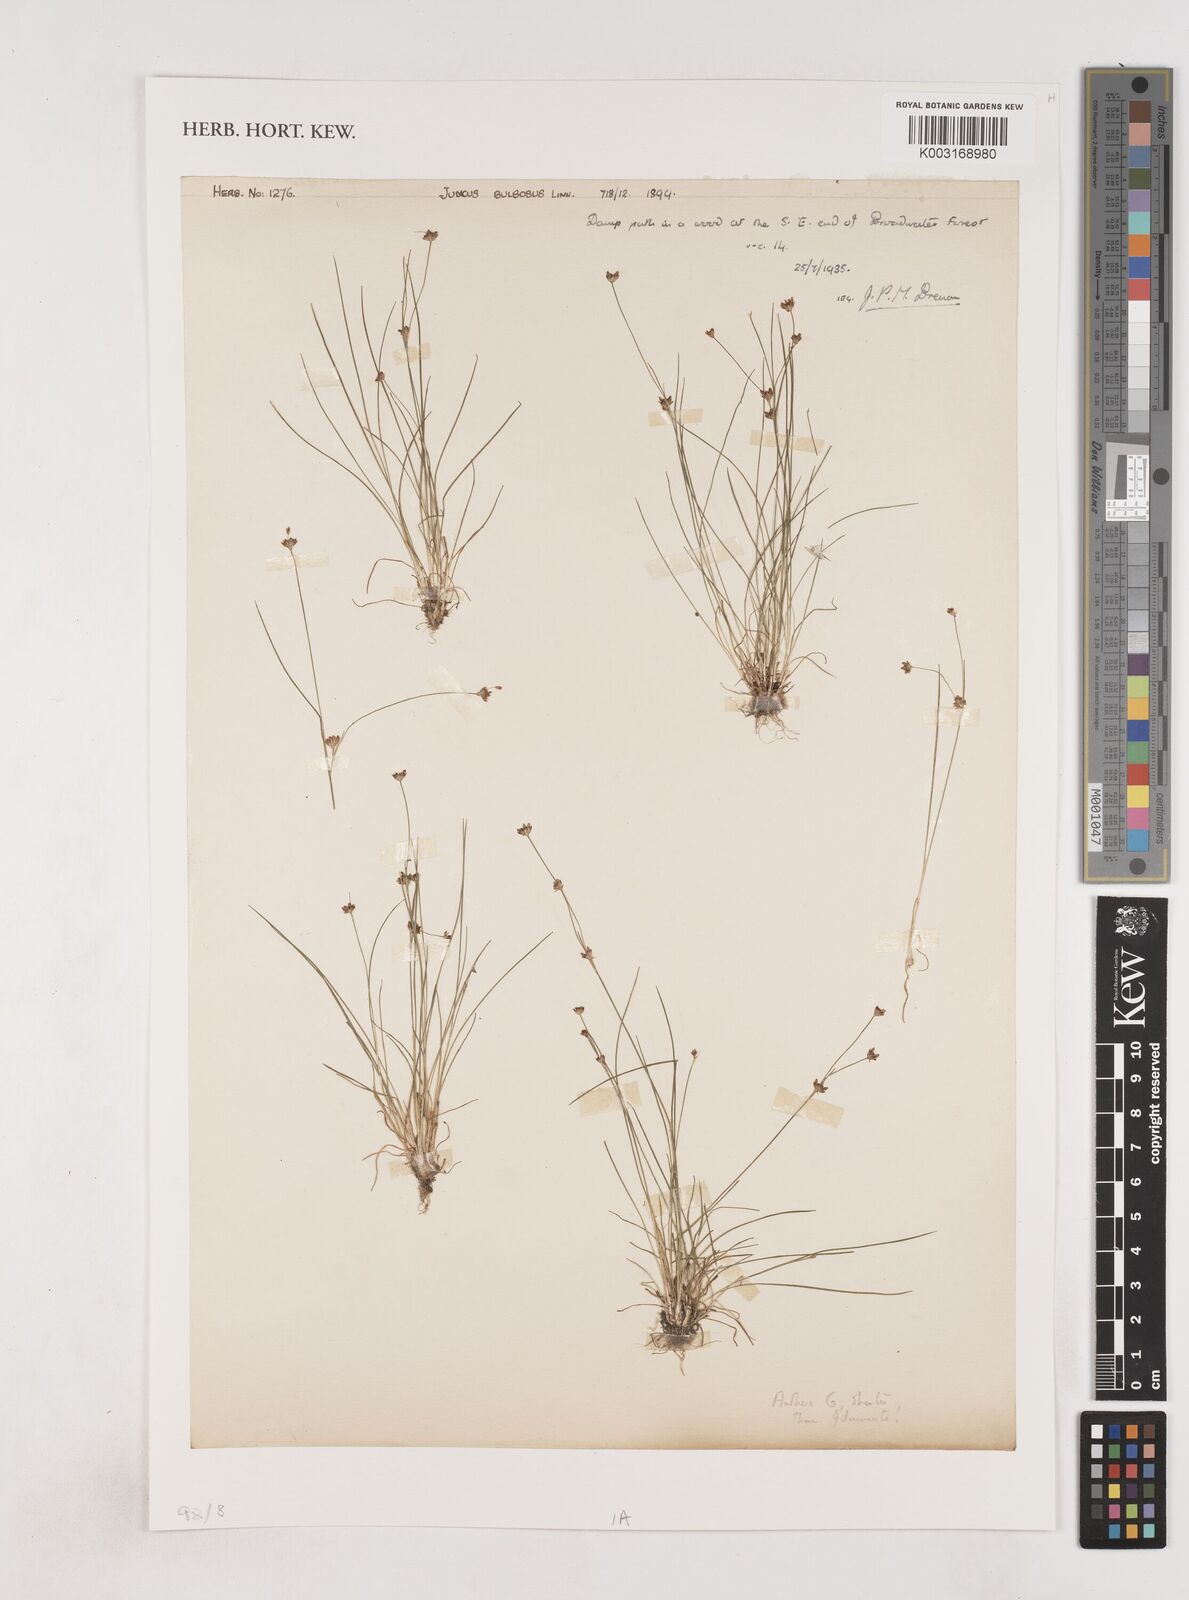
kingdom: Plantae
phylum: Tracheophyta
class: Liliopsida
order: Poales
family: Juncaceae
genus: Juncus
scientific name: Juncus bulbosus
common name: Bulbous rush
